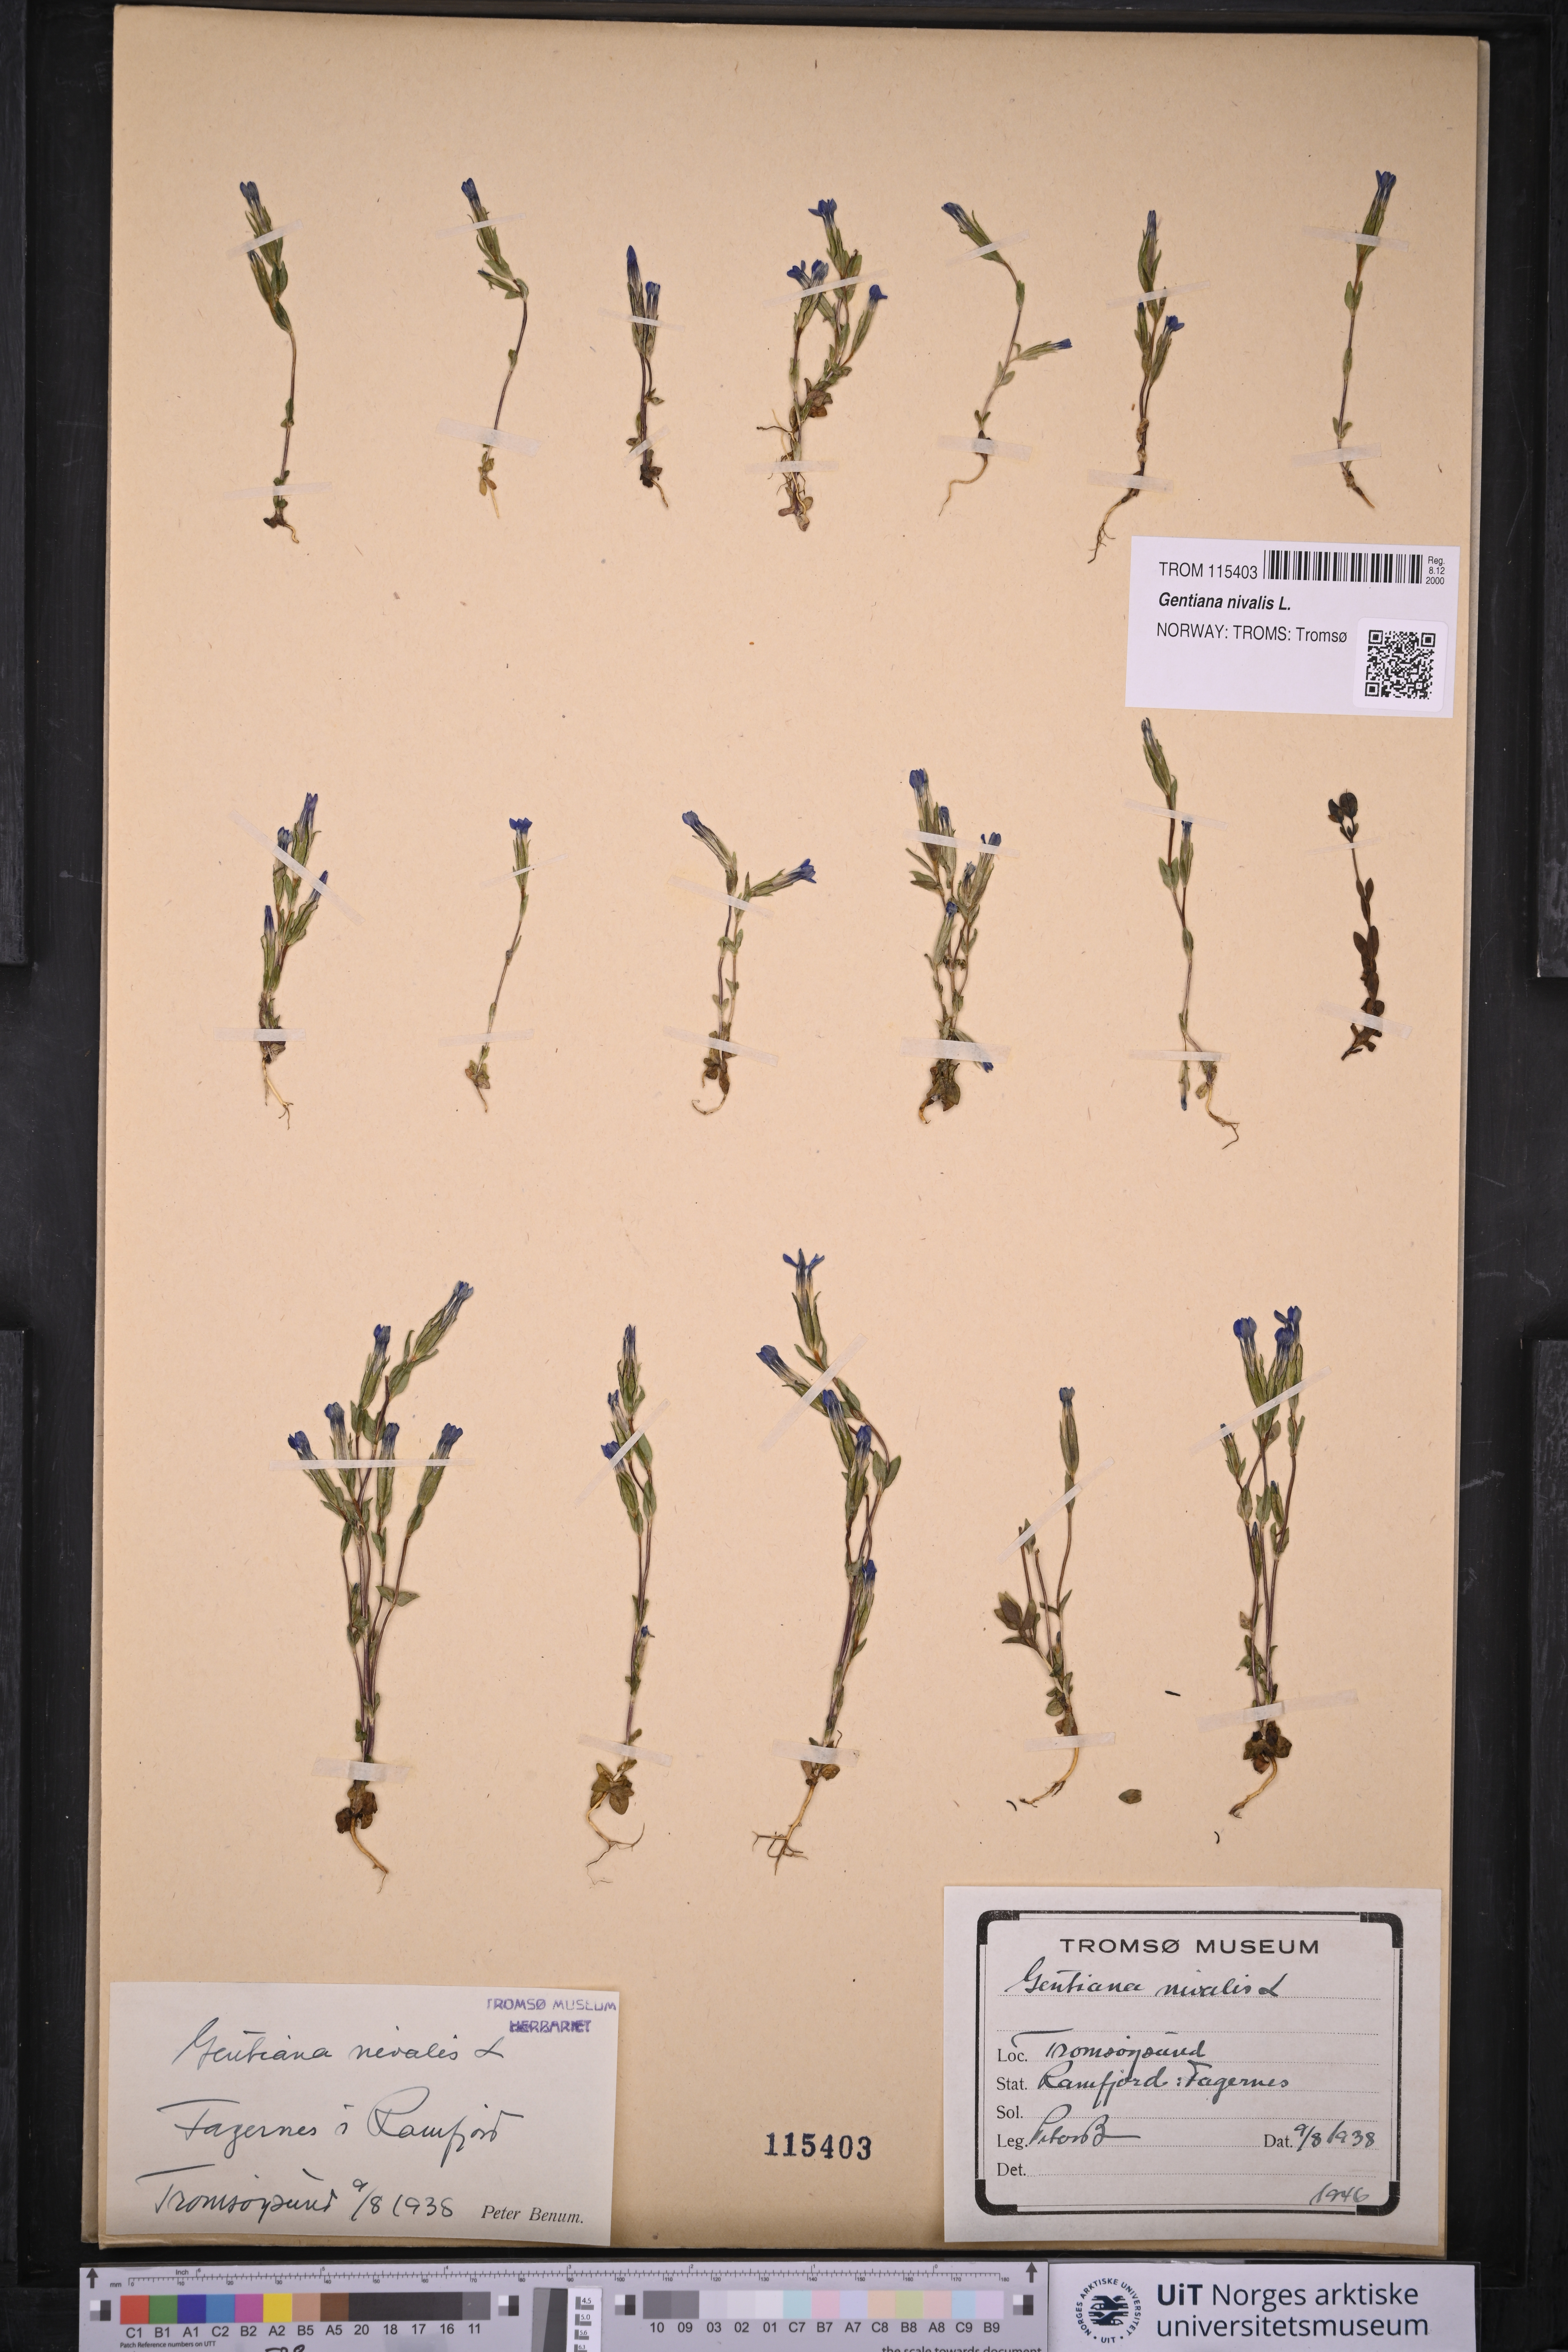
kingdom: Plantae
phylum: Tracheophyta
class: Magnoliopsida
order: Gentianales
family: Gentianaceae
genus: Gentiana
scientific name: Gentiana nivalis
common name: Alpine gentian
